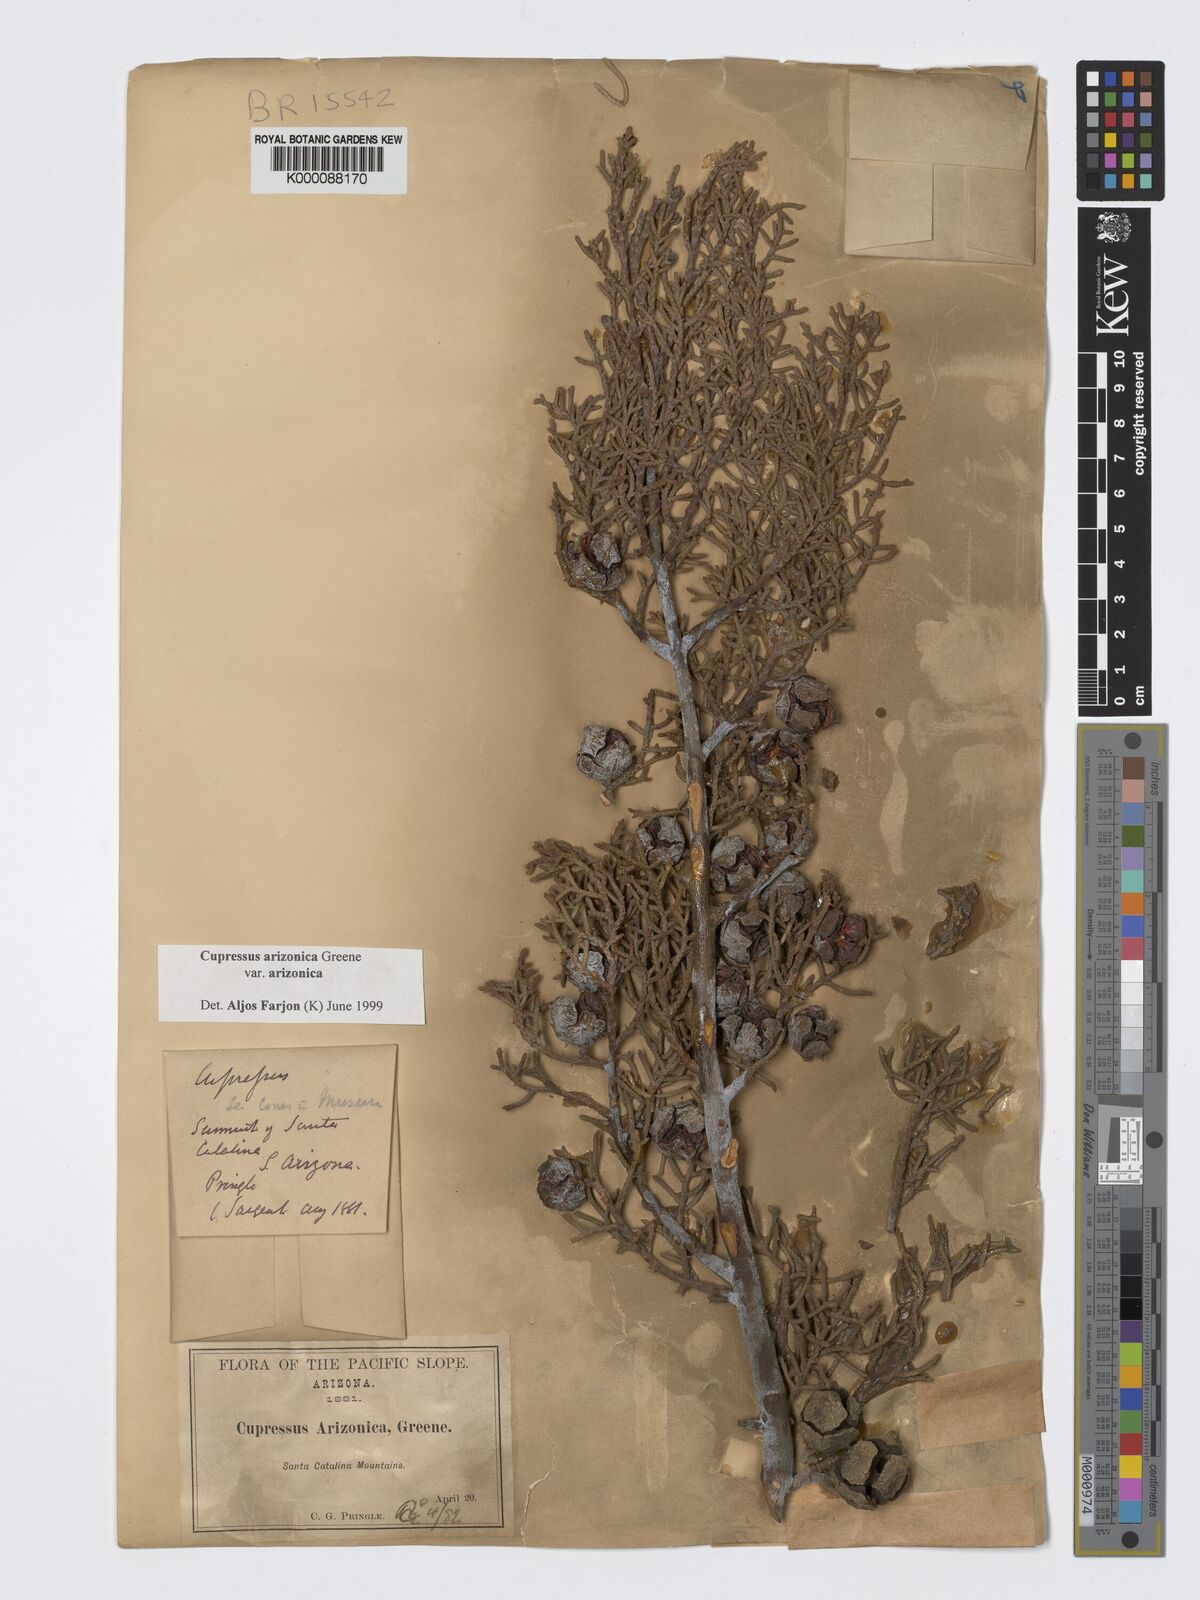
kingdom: Plantae
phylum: Tracheophyta
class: Pinopsida
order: Pinales
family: Cupressaceae
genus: Cupressus
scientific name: Cupressus arizonica
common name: Arizona cypress
